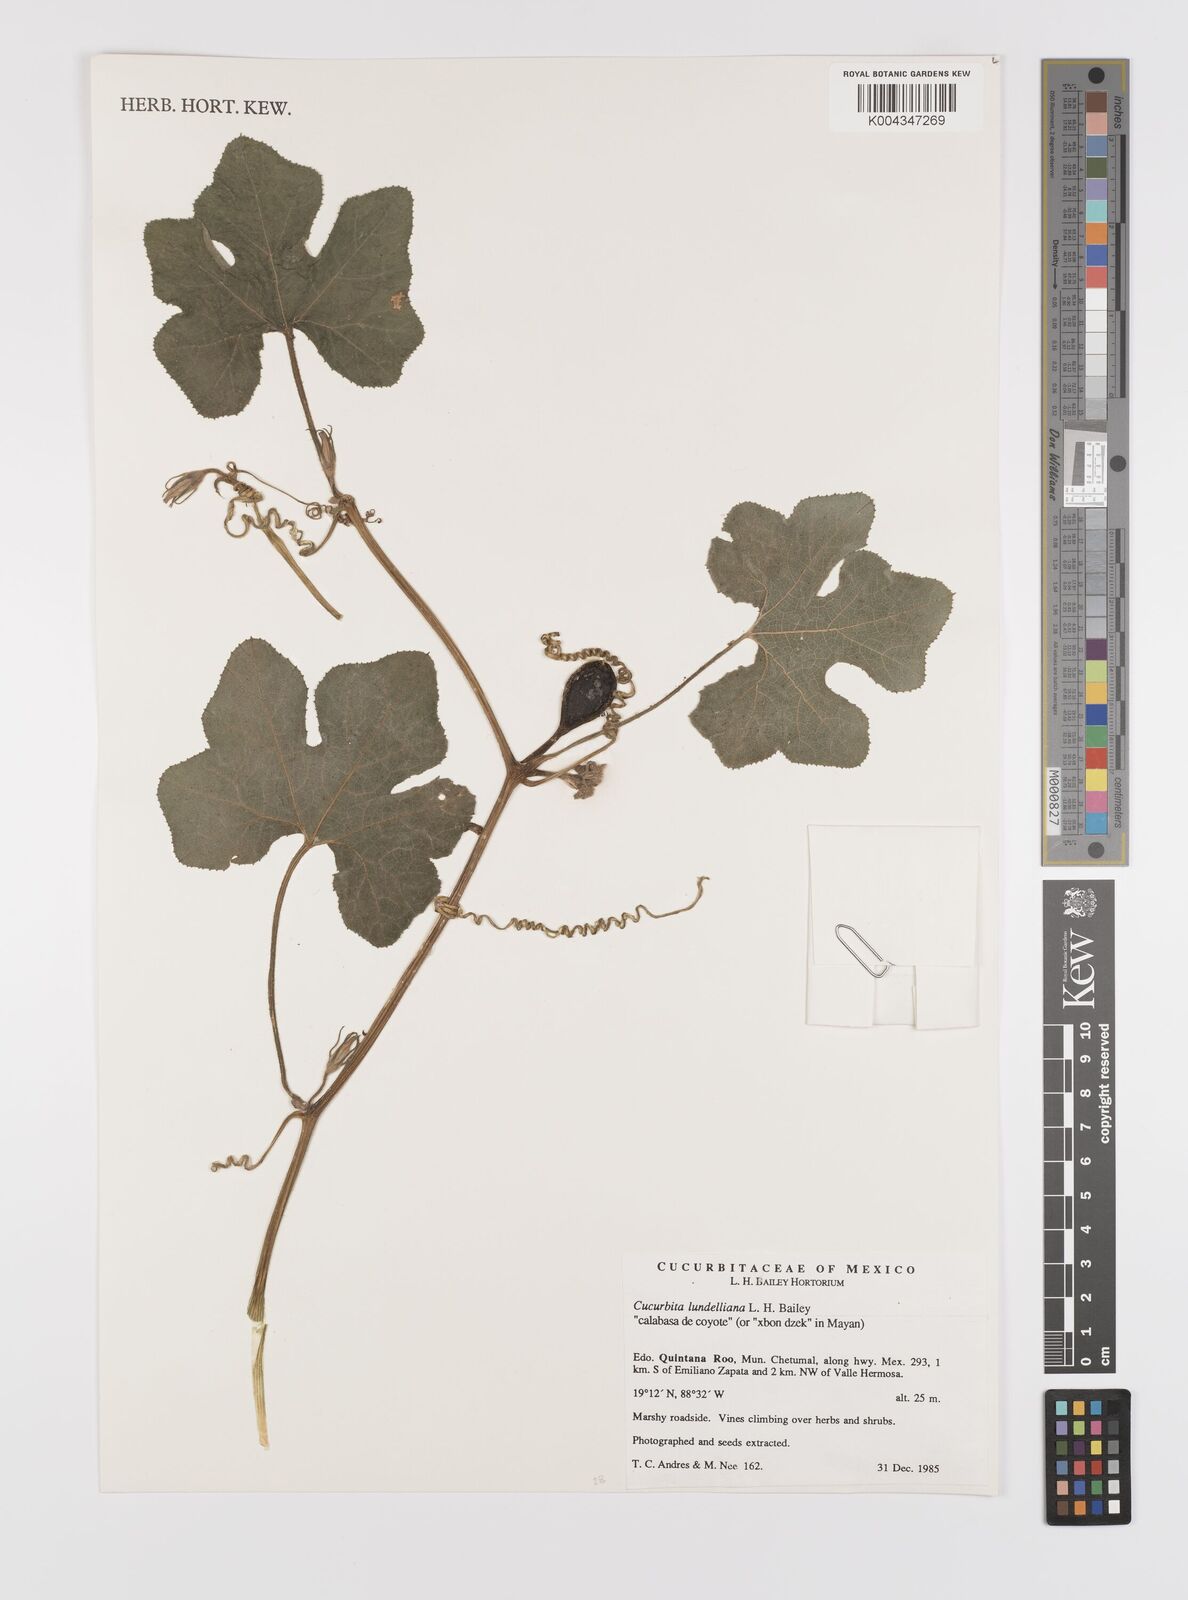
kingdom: Plantae
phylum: Tracheophyta
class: Magnoliopsida
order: Cucurbitales
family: Cucurbitaceae
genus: Cucurbita
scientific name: Cucurbita lundelliana
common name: Bitter pumpkin
